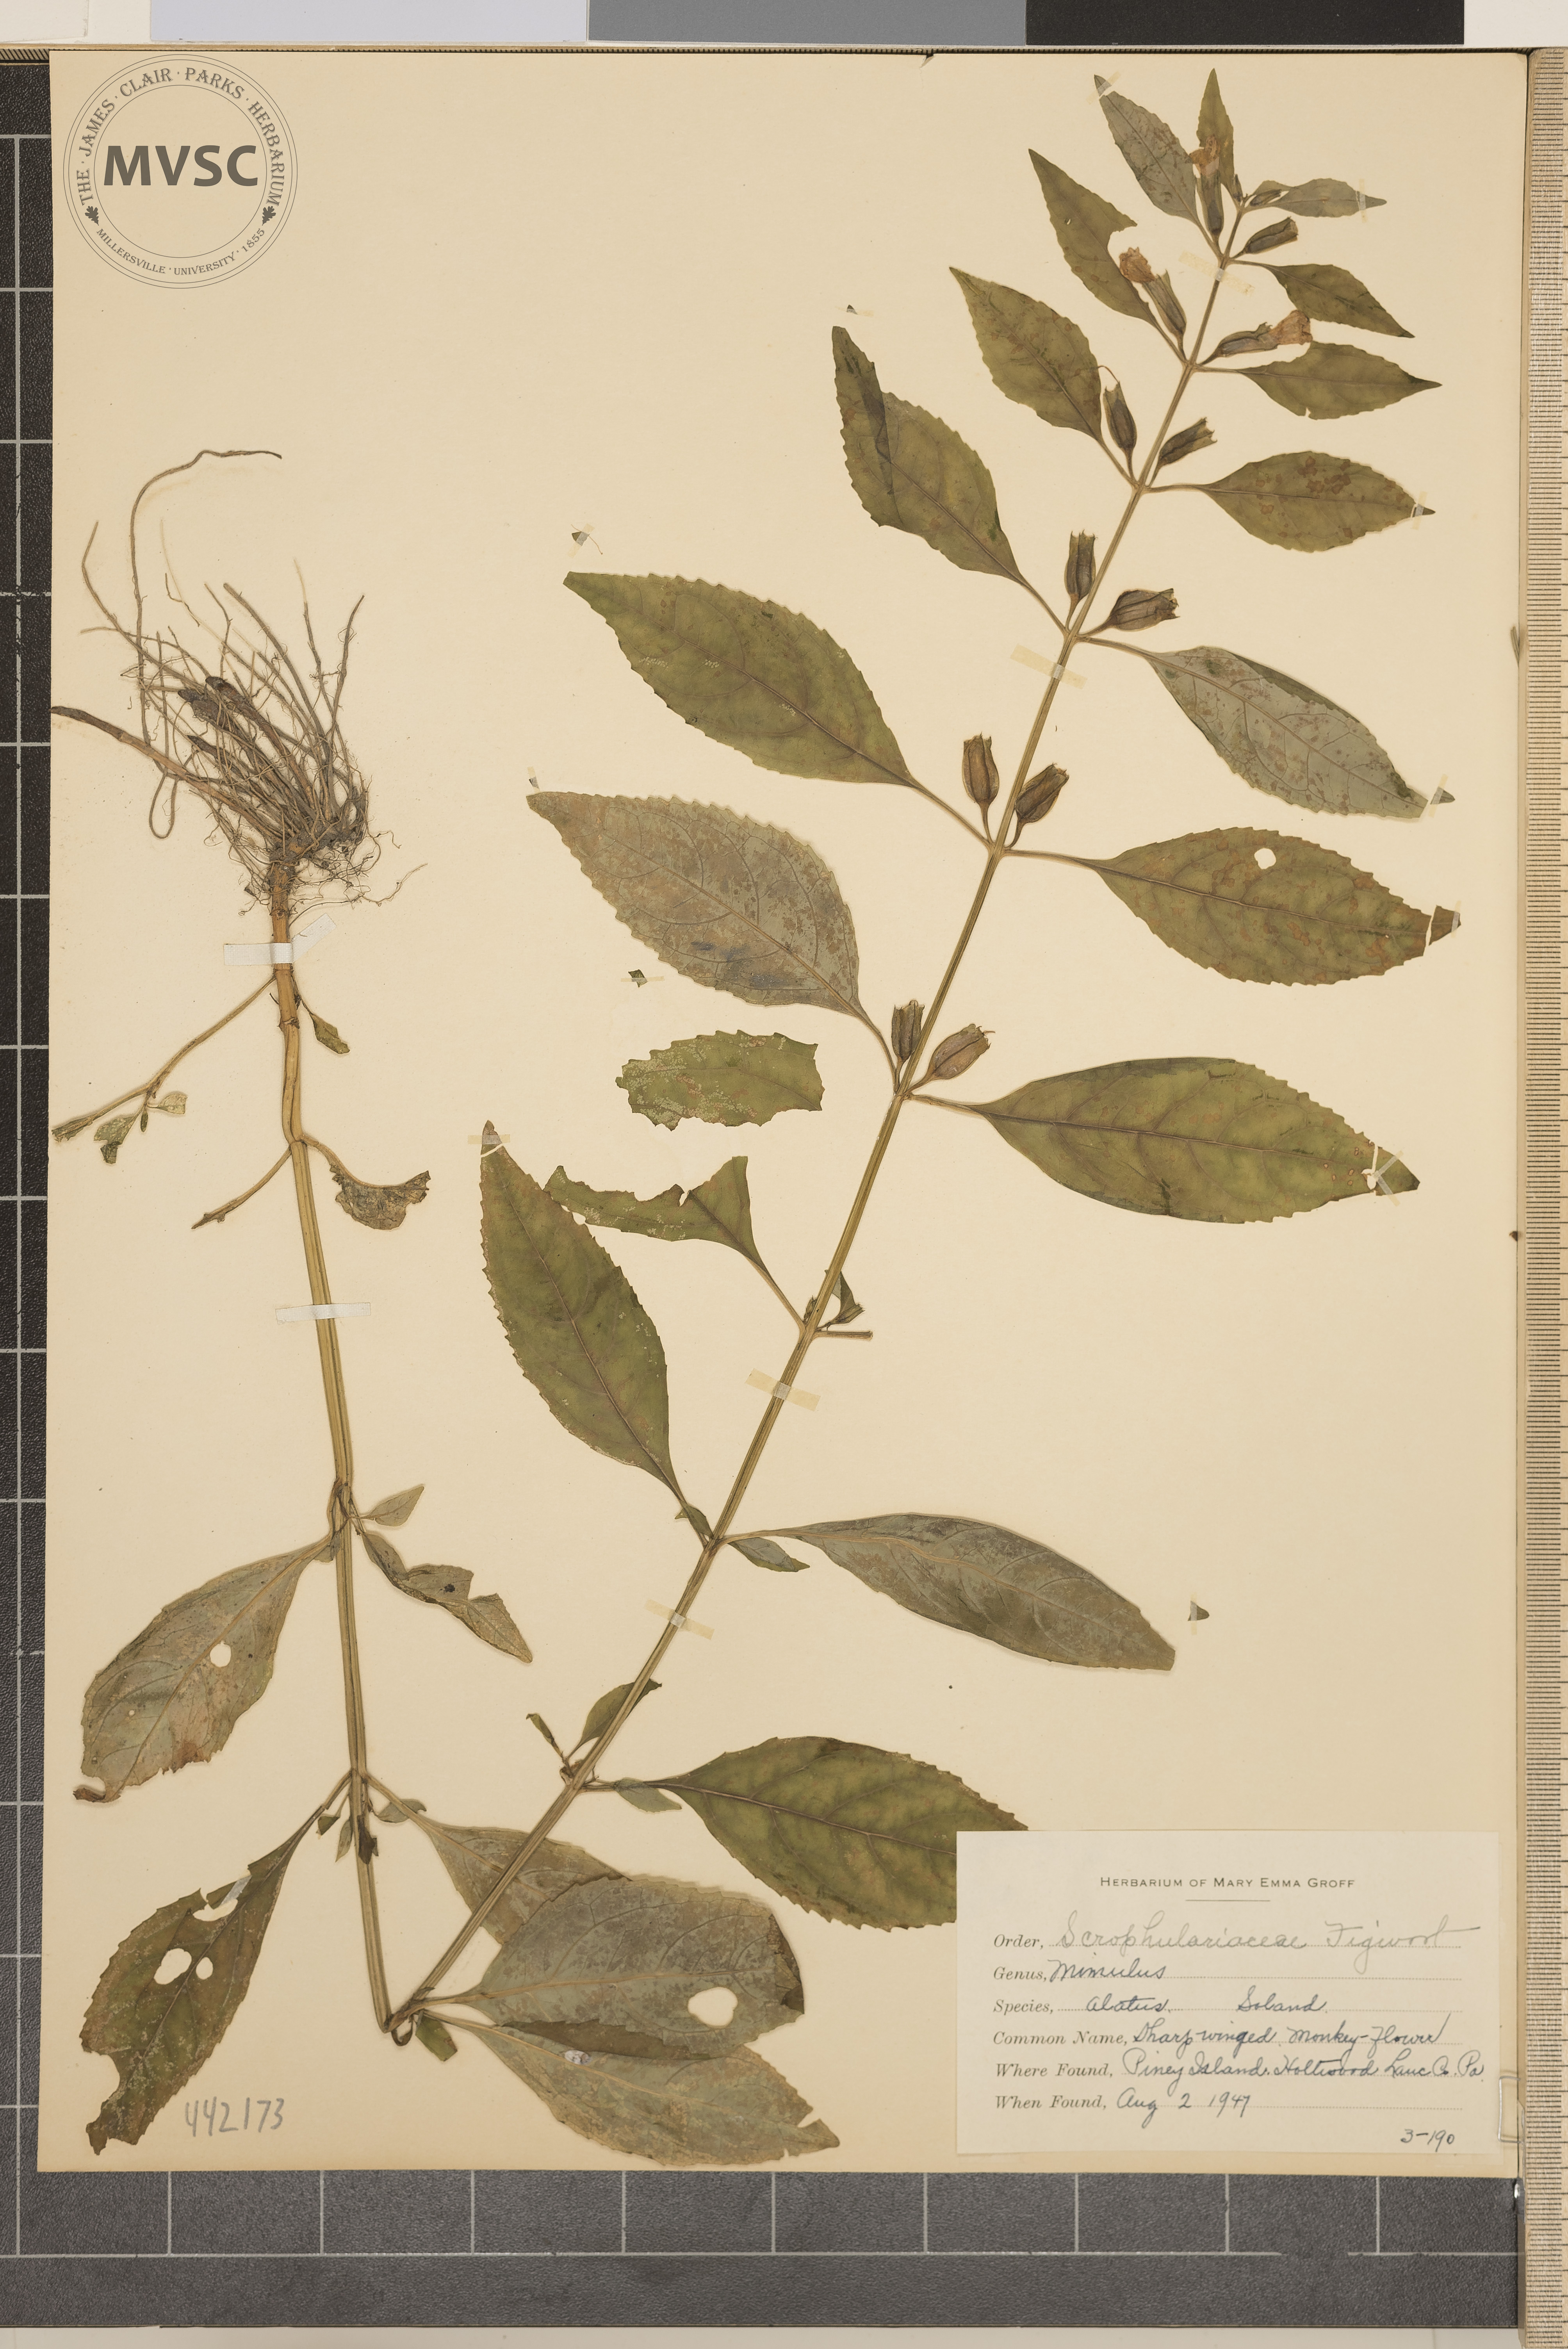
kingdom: Plantae
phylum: Tracheophyta
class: Magnoliopsida
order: Lamiales
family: Phrymaceae
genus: Mimulus
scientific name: Mimulus alatus
